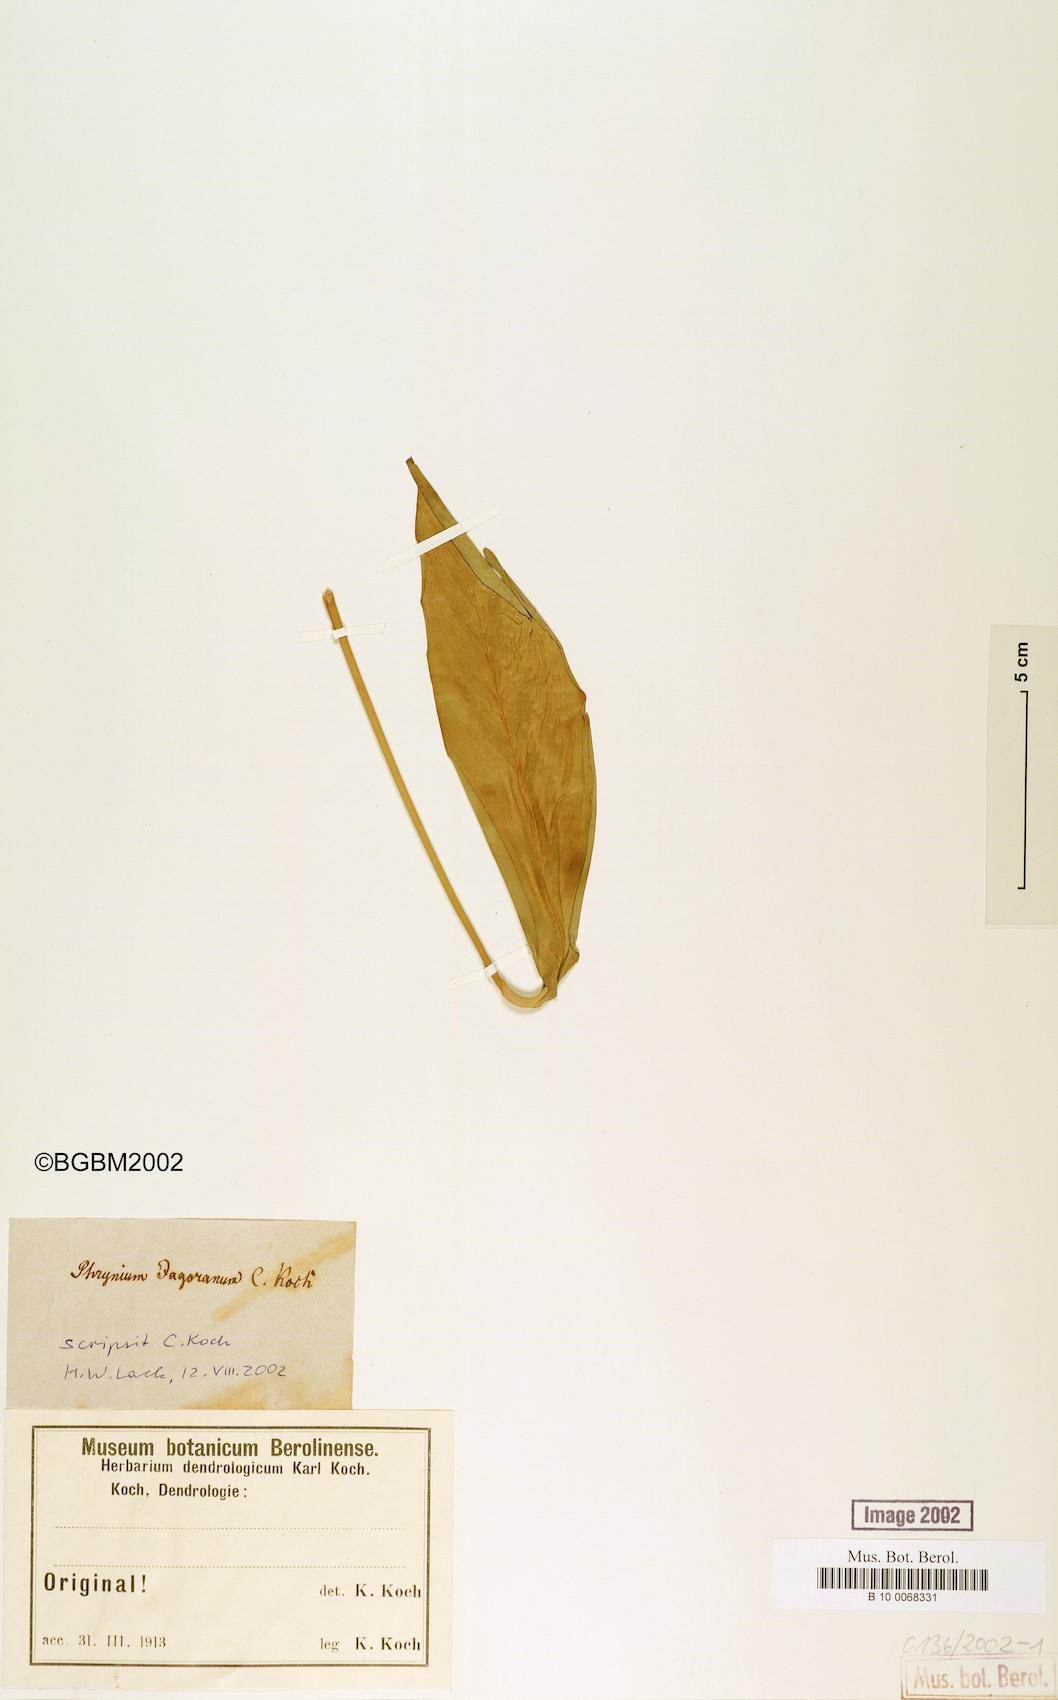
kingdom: Plantae
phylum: Tracheophyta
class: Liliopsida
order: Zingiberales
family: Marantaceae
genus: Stachyphrynium
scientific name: Stachyphrynium repens
